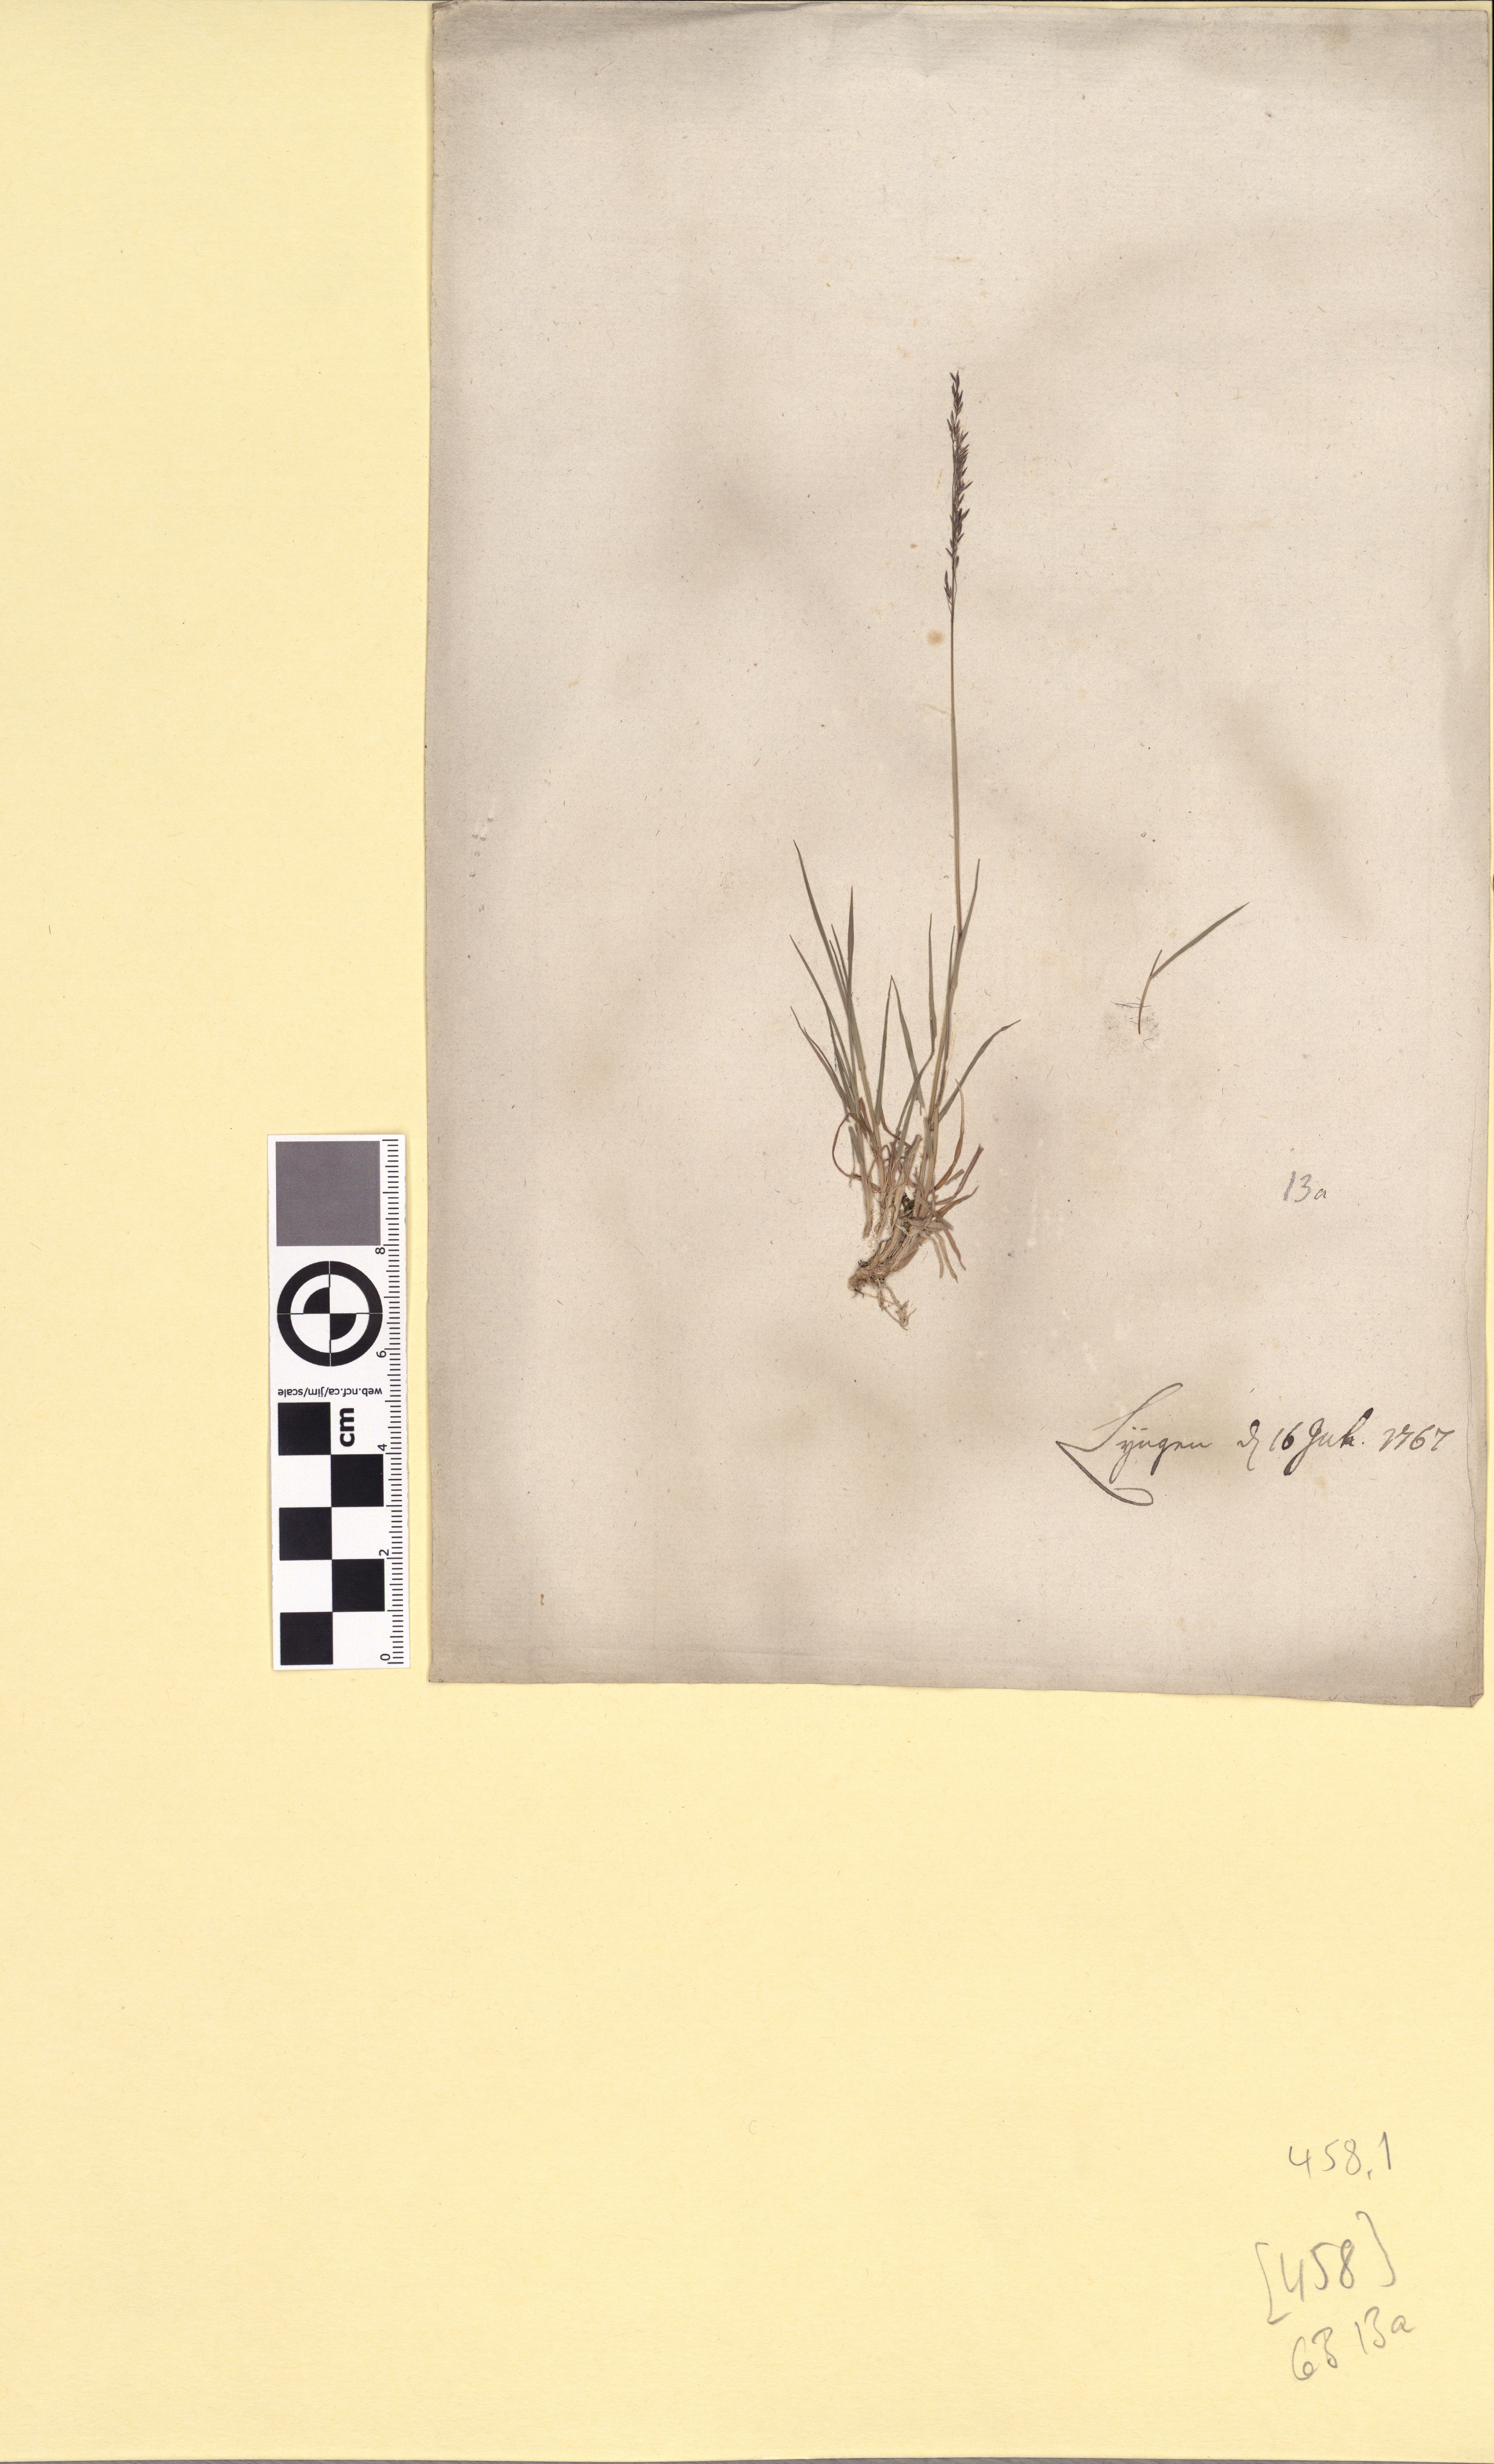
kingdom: Plantae
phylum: Tracheophyta
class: Liliopsida
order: Poales
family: Poaceae
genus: Agrostis
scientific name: Agrostis capillaris
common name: Colonial bentgrass
